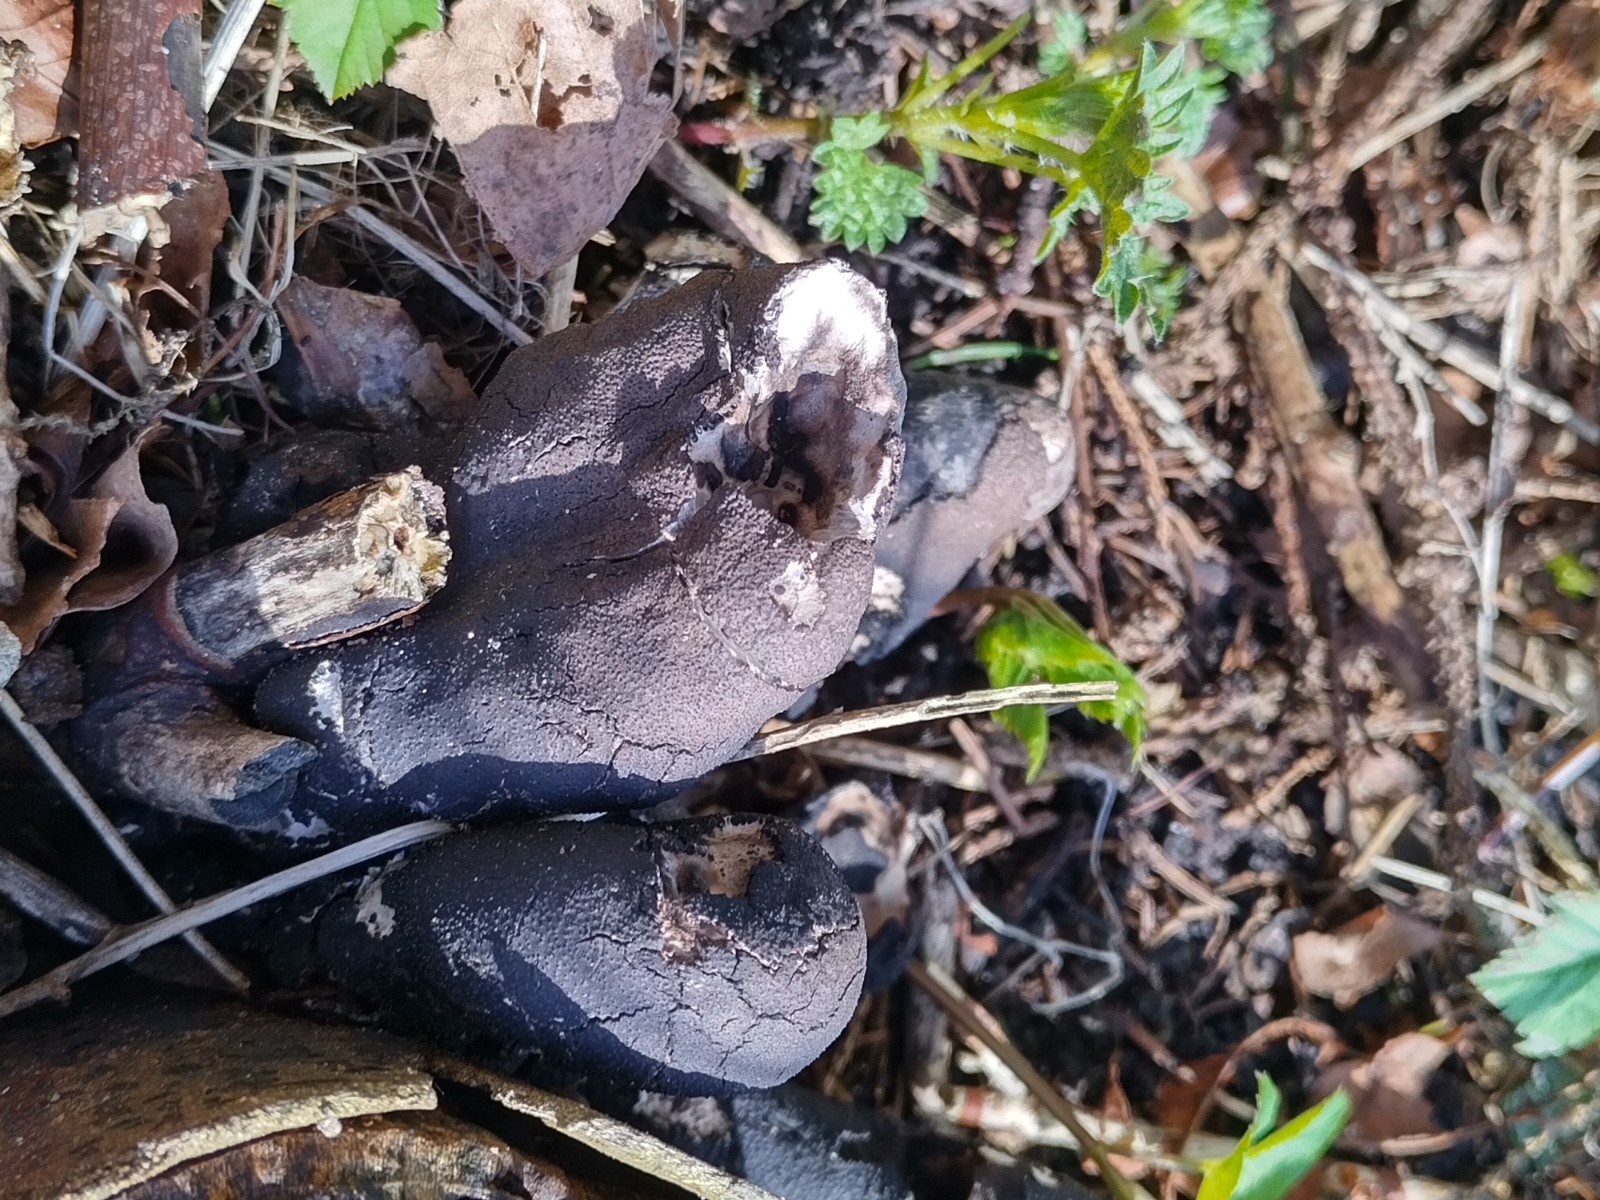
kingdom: Fungi
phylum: Ascomycota
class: Sordariomycetes
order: Xylariales
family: Xylariaceae
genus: Xylaria
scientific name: Xylaria polymorpha
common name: kølle-stødsvamp
